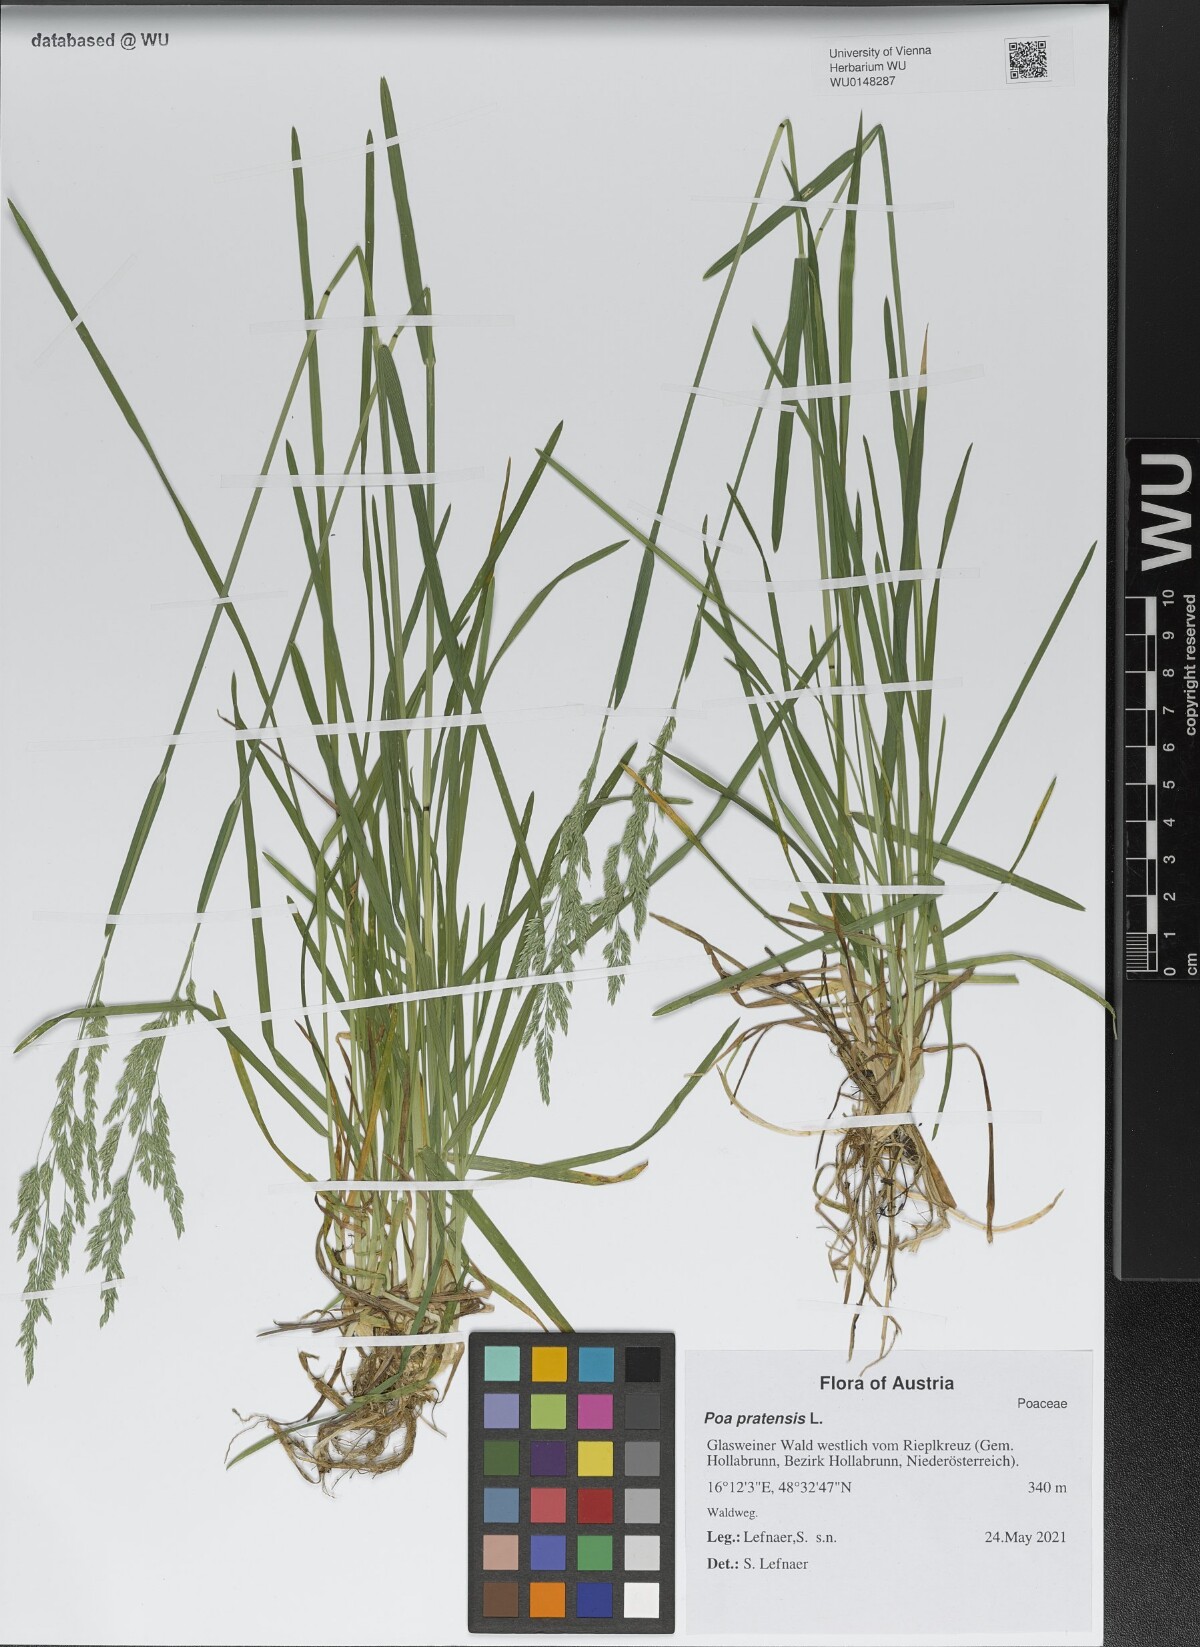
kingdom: Plantae
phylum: Tracheophyta
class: Liliopsida
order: Poales
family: Poaceae
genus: Poa
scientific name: Poa pratensis
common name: Kentucky bluegrass
